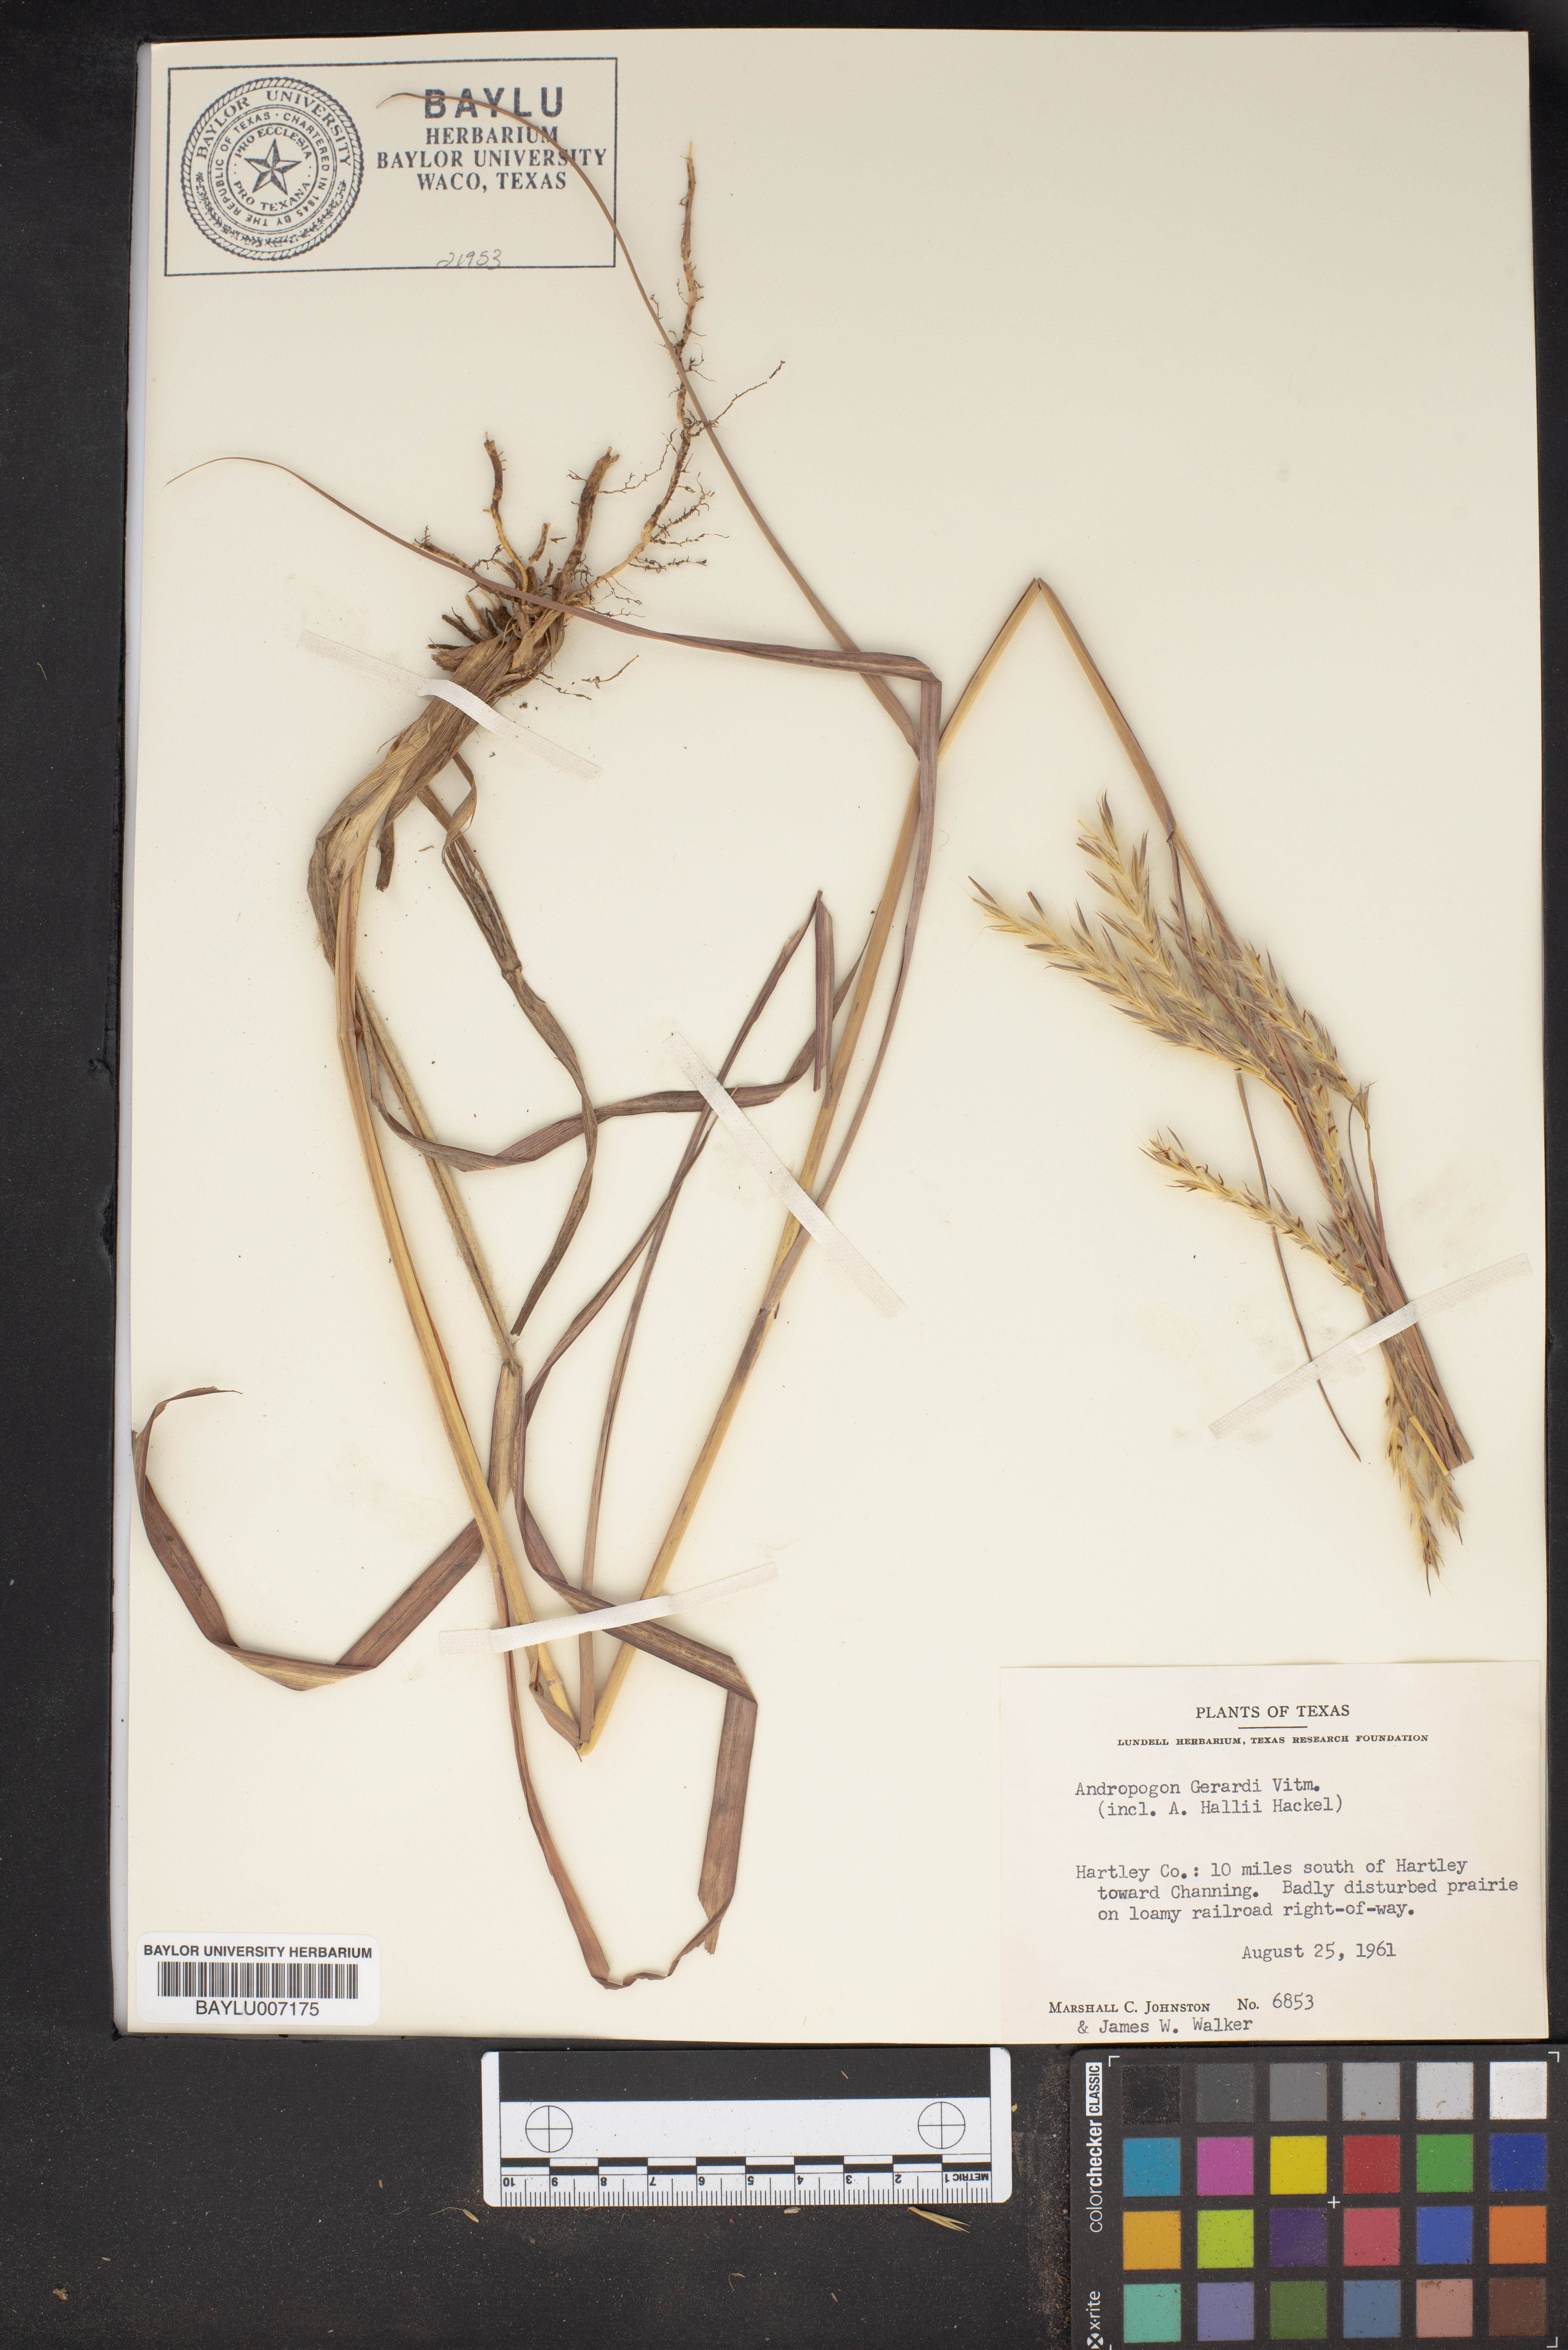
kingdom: Plantae
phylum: Tracheophyta
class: Liliopsida
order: Poales
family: Poaceae
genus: Andropogon
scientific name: Andropogon gerardi
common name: Big bluestem
